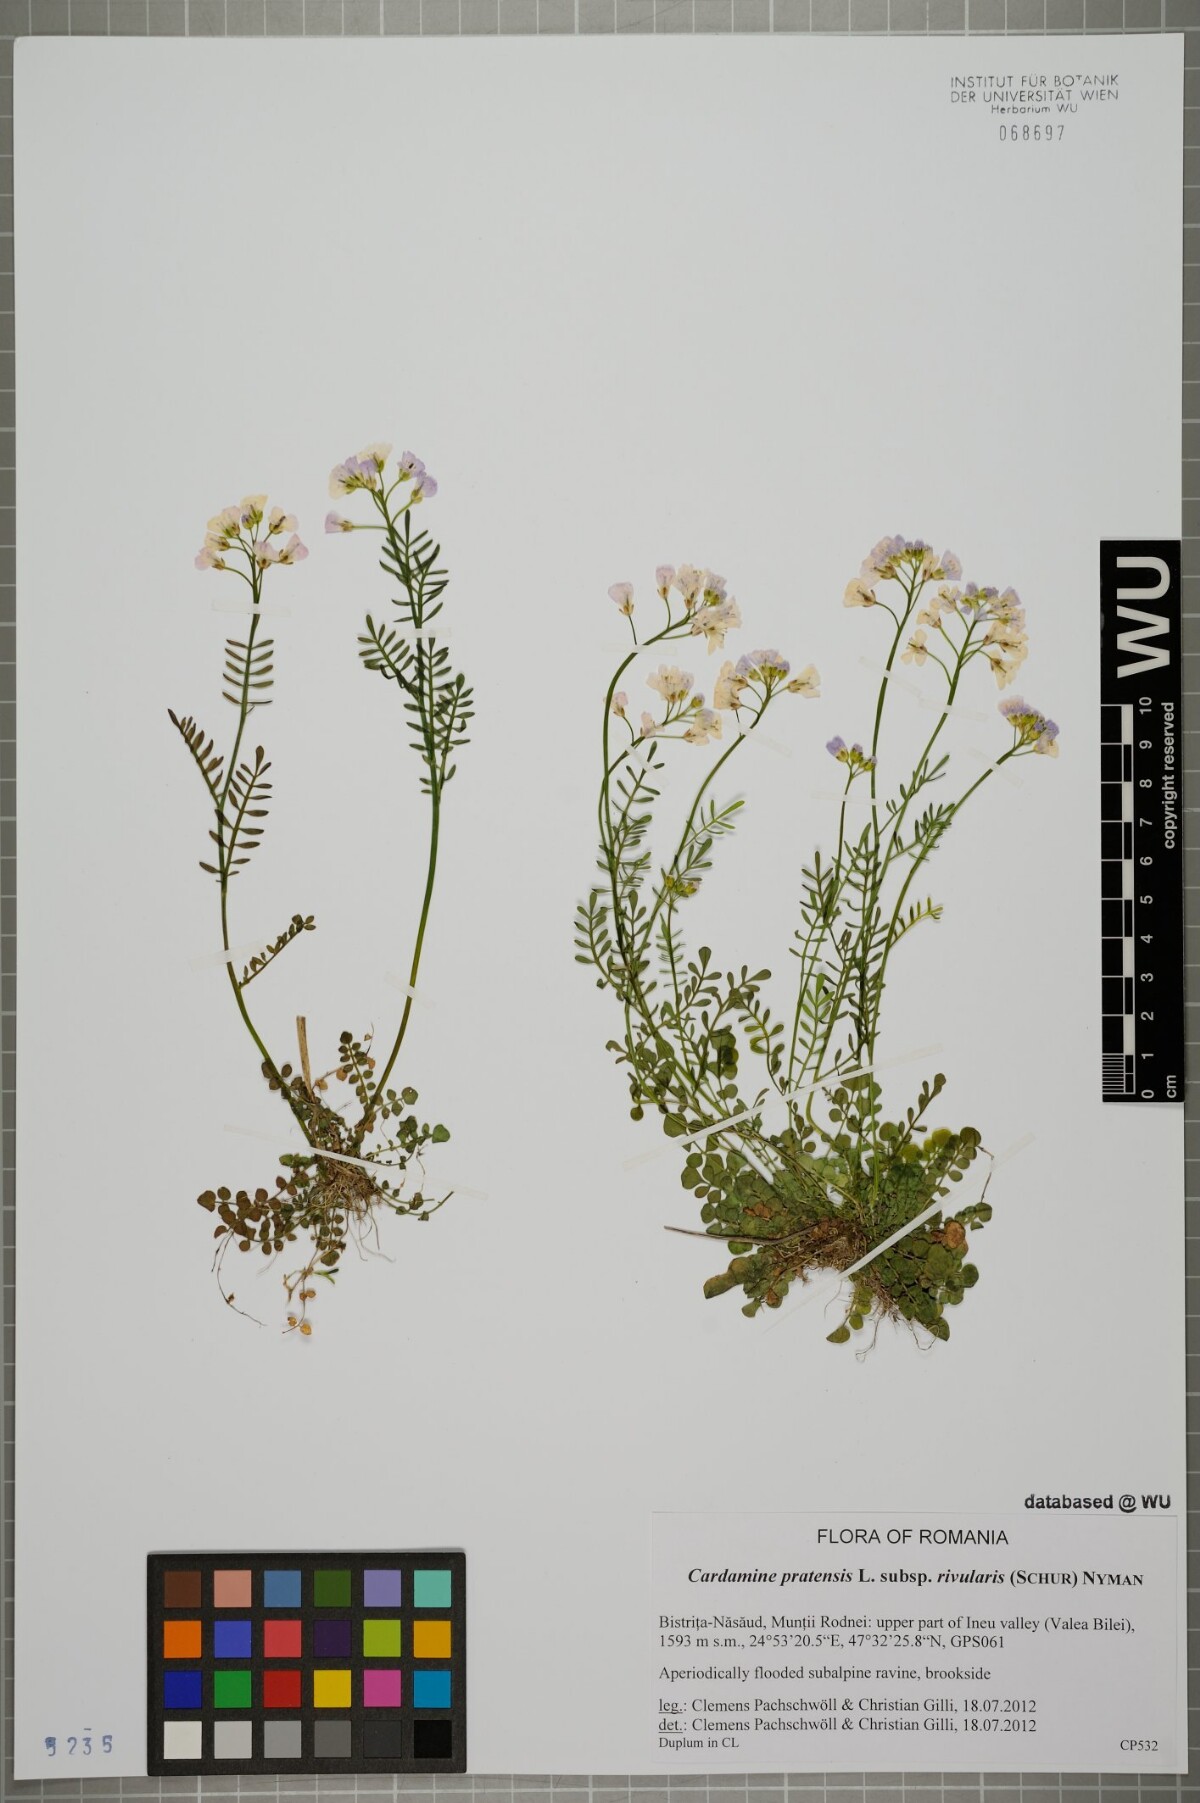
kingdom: Plantae
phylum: Tracheophyta
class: Magnoliopsida
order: Brassicales
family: Brassicaceae
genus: Cardamine
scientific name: Cardamine pratensis
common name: Cuckoo flower
